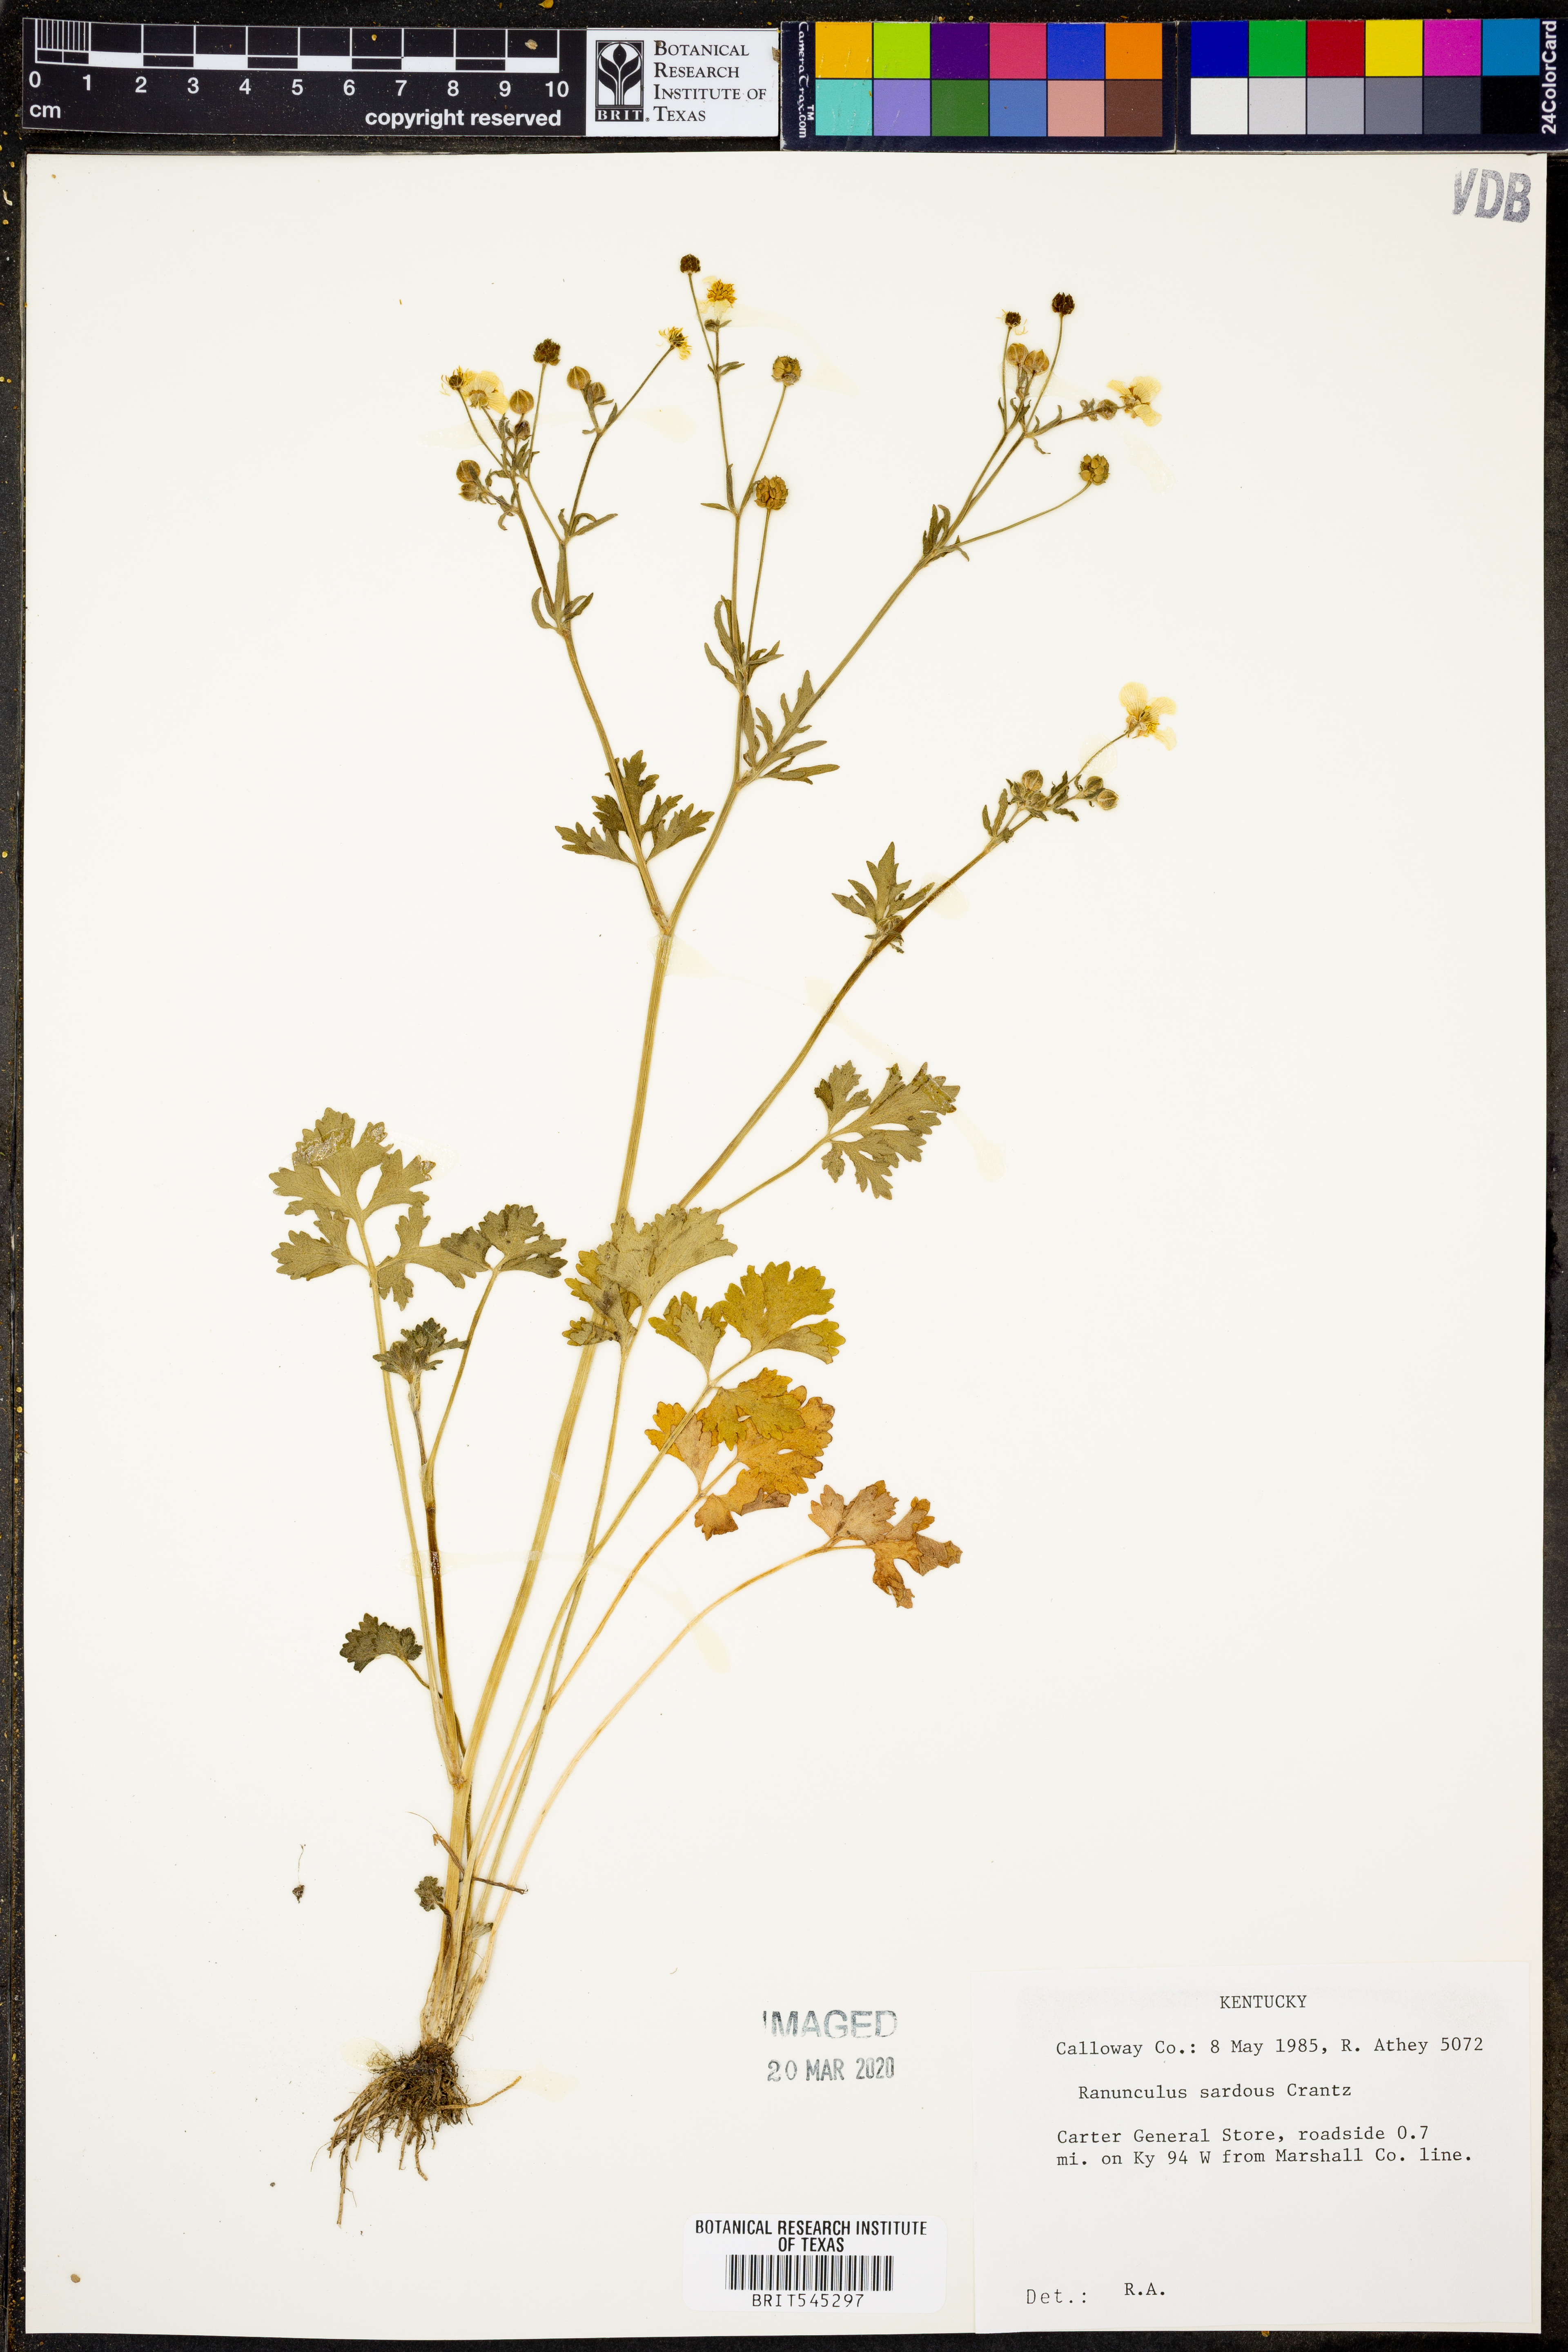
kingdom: Plantae
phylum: Tracheophyta
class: Magnoliopsida
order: Ranunculales
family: Ranunculaceae
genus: Ranunculus
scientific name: Ranunculus sardous
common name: Hairy buttercup
